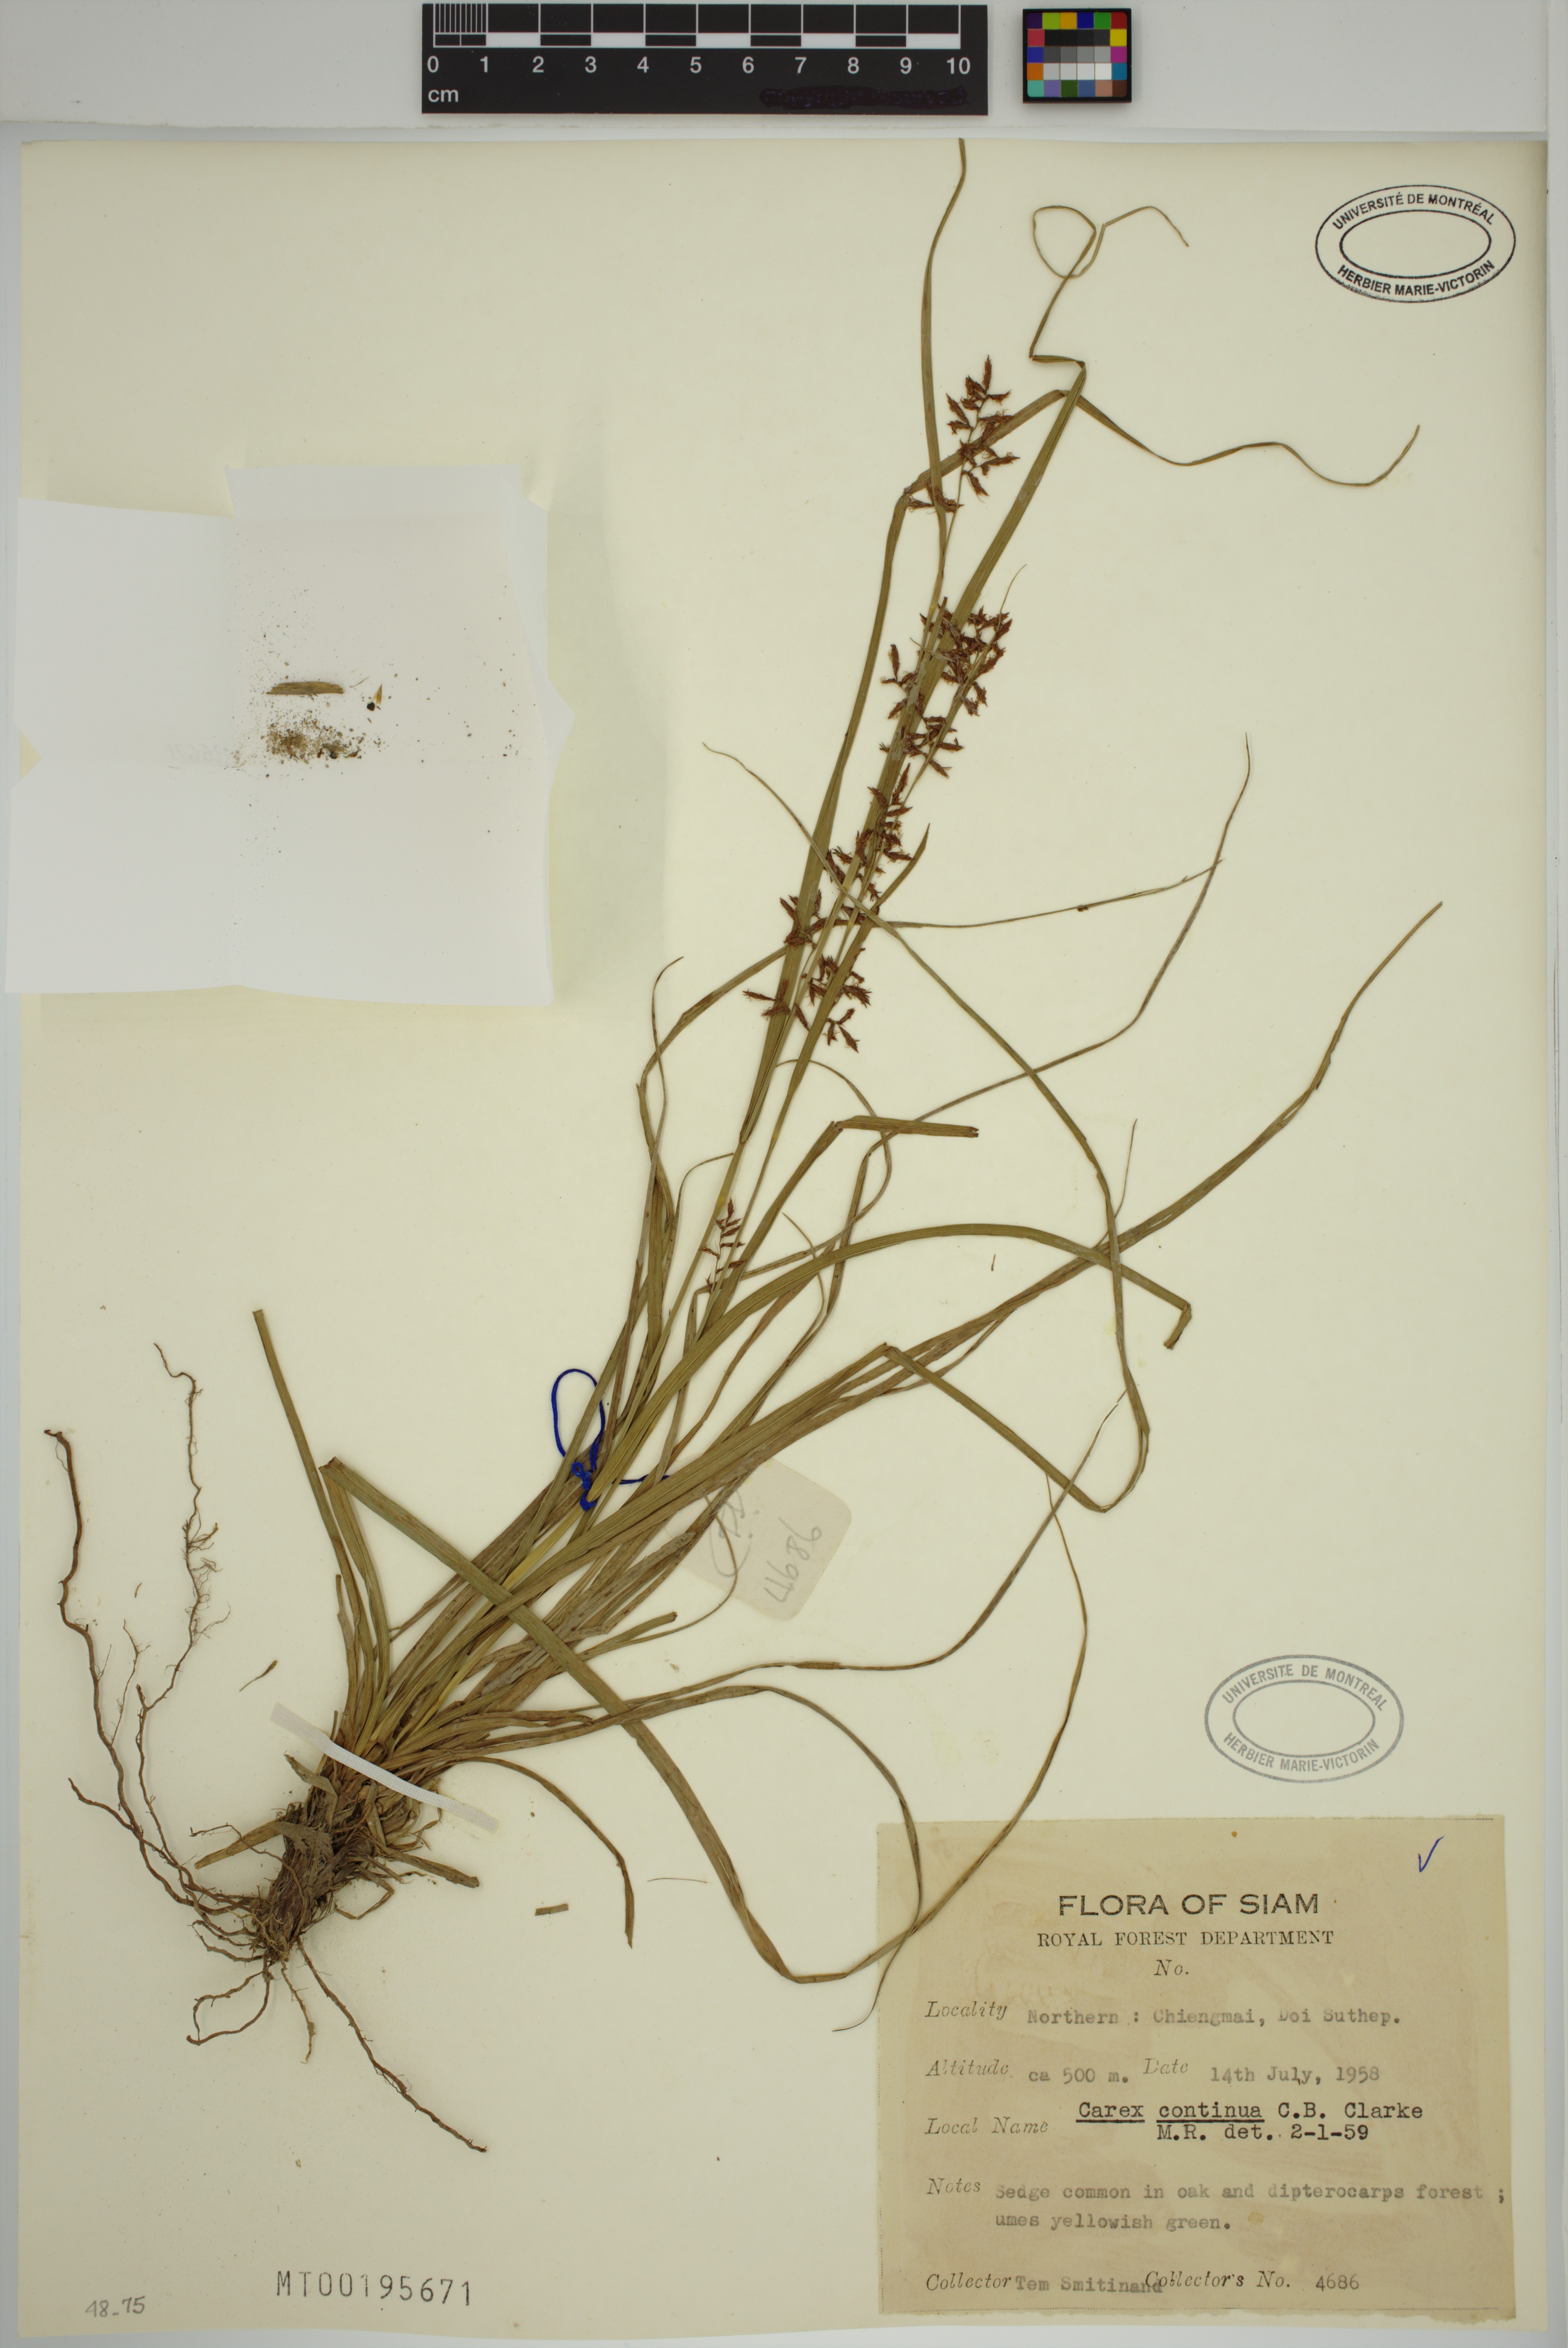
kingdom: Plantae
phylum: Tracheophyta
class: Liliopsida
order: Poales
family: Cyperaceae
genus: Carex
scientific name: Carex continua
